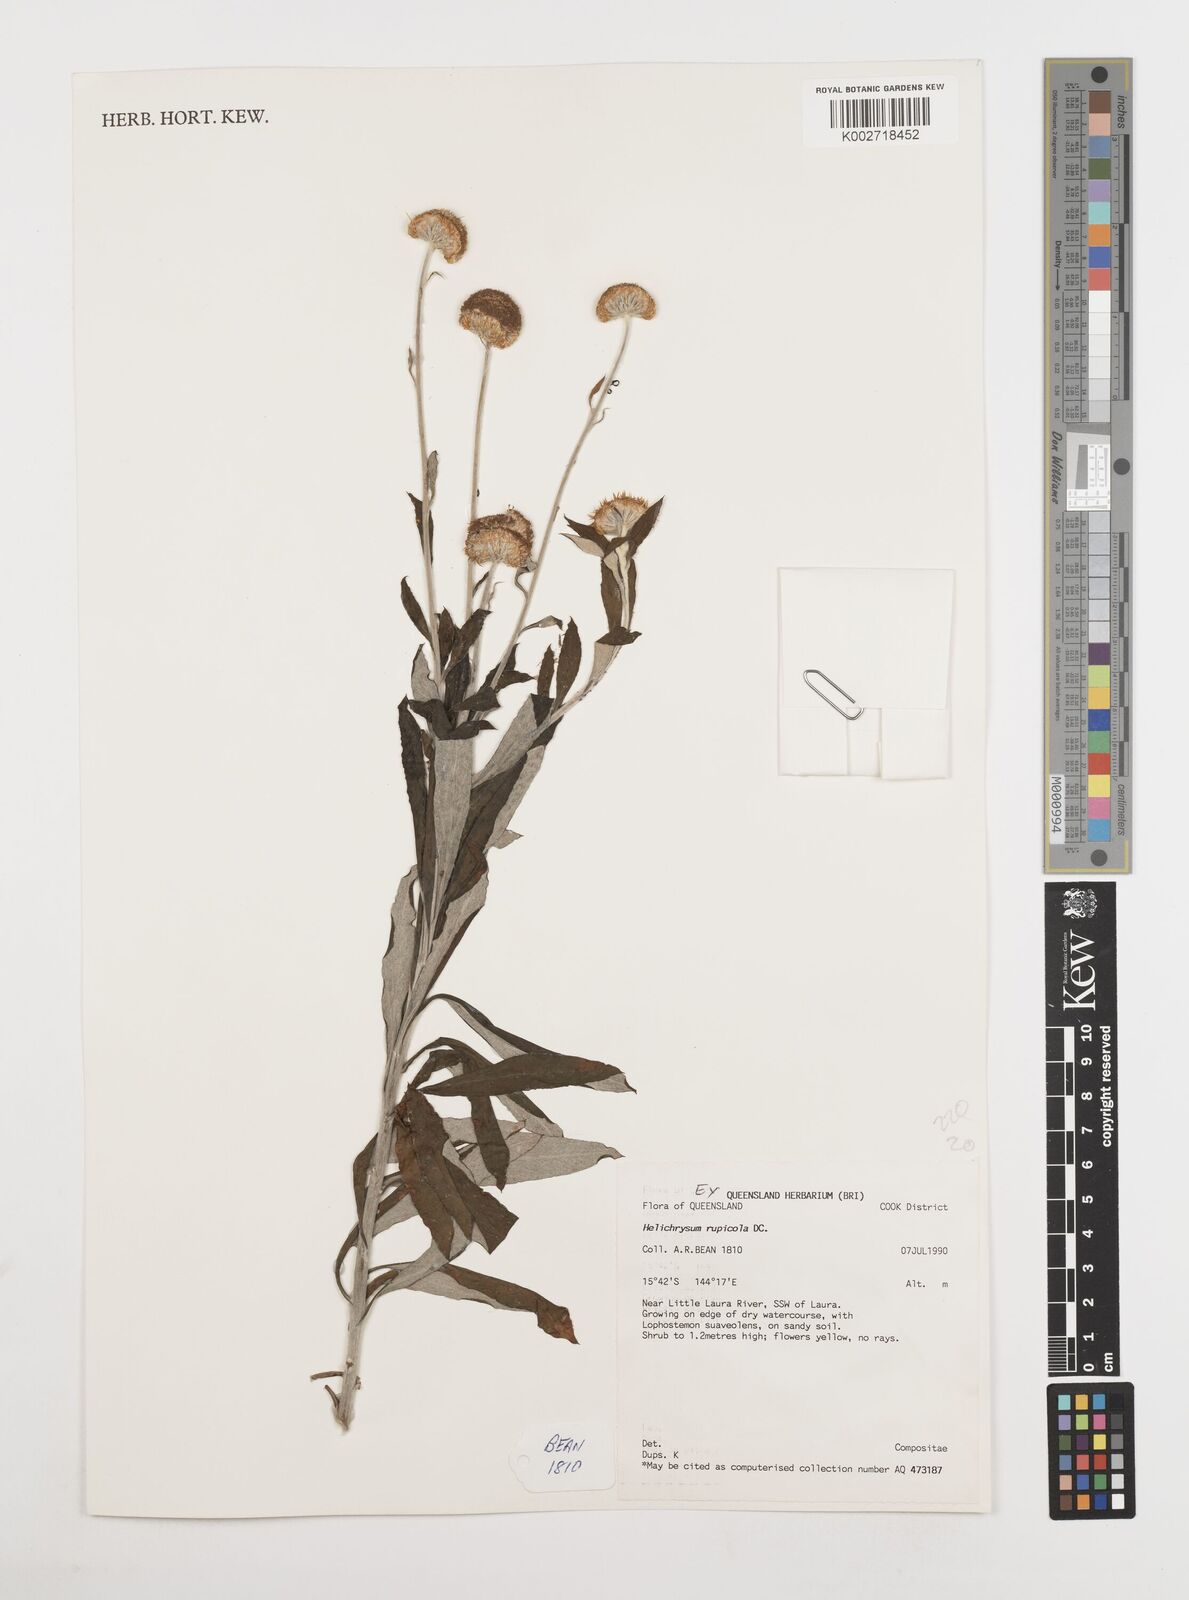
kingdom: Plantae
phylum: Tracheophyta
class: Magnoliopsida
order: Asterales
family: Asteraceae
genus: Coronidium
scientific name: Coronidium rupicola
